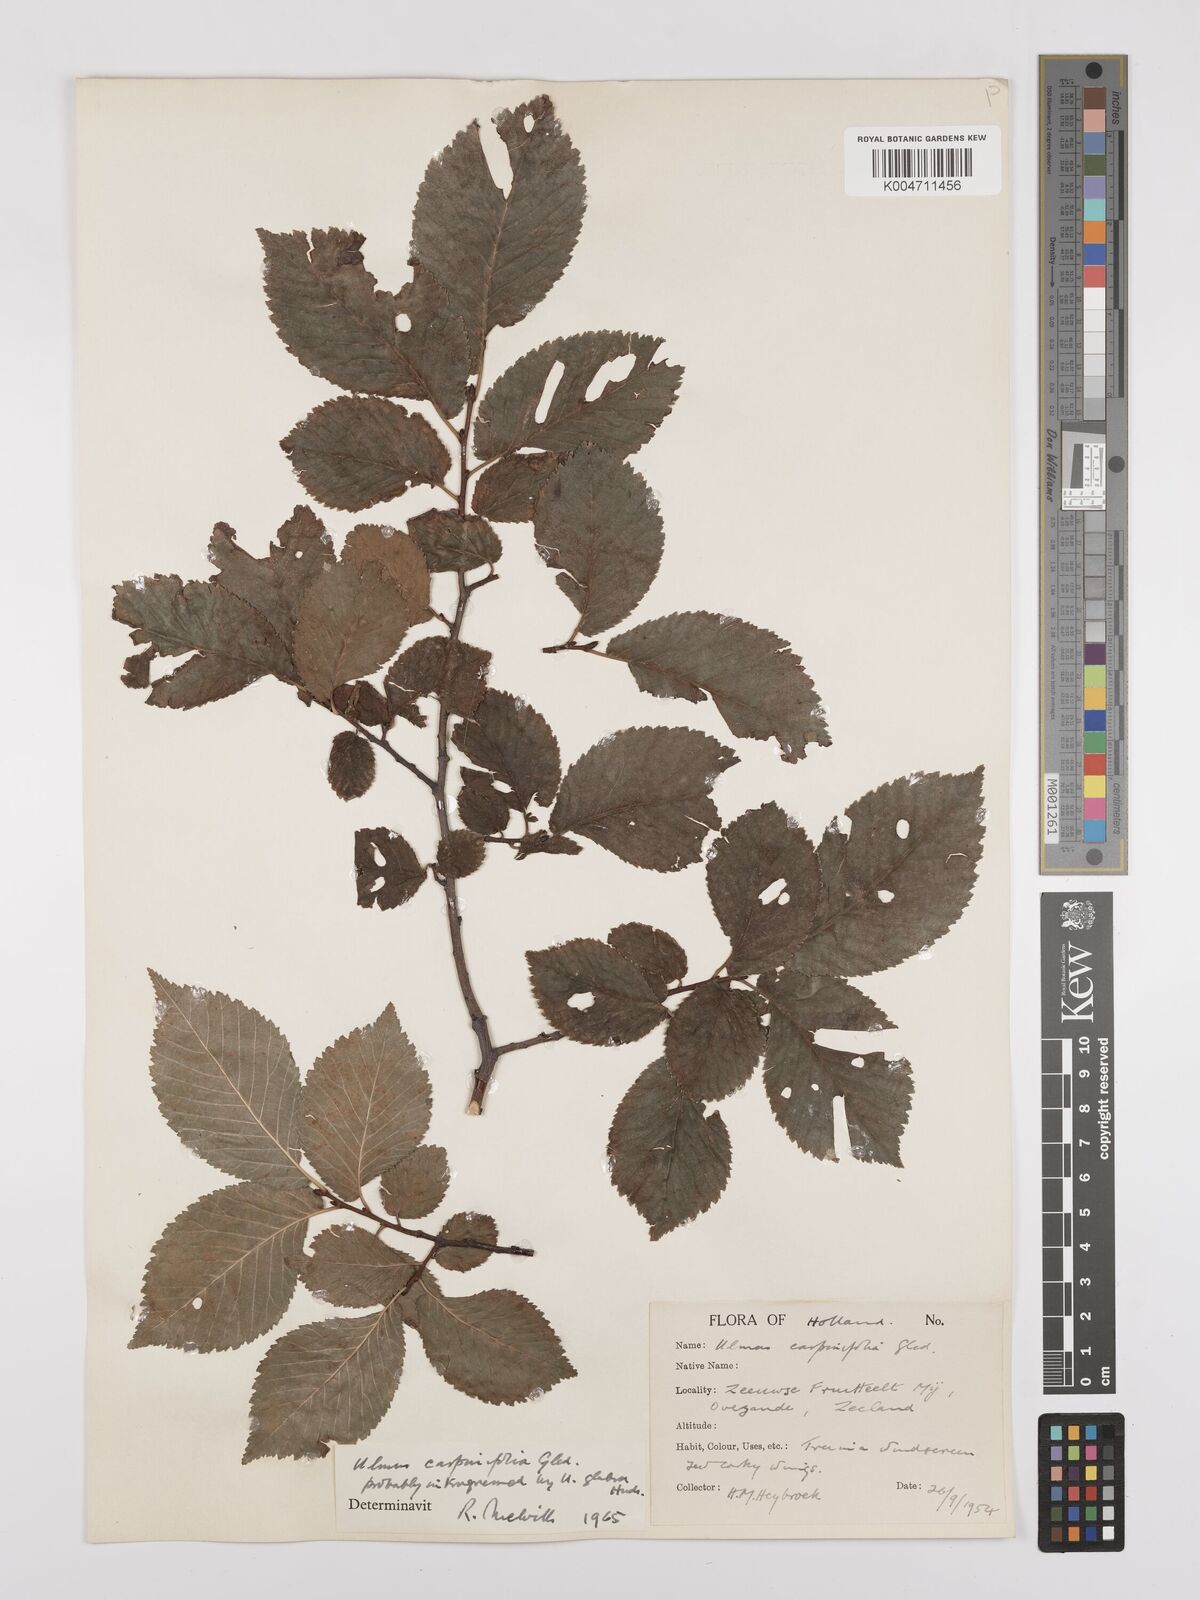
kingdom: Plantae
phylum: Tracheophyta
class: Magnoliopsida
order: Rosales
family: Ulmaceae
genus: Ulmus
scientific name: Ulmus minor
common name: Small-leaved elm
